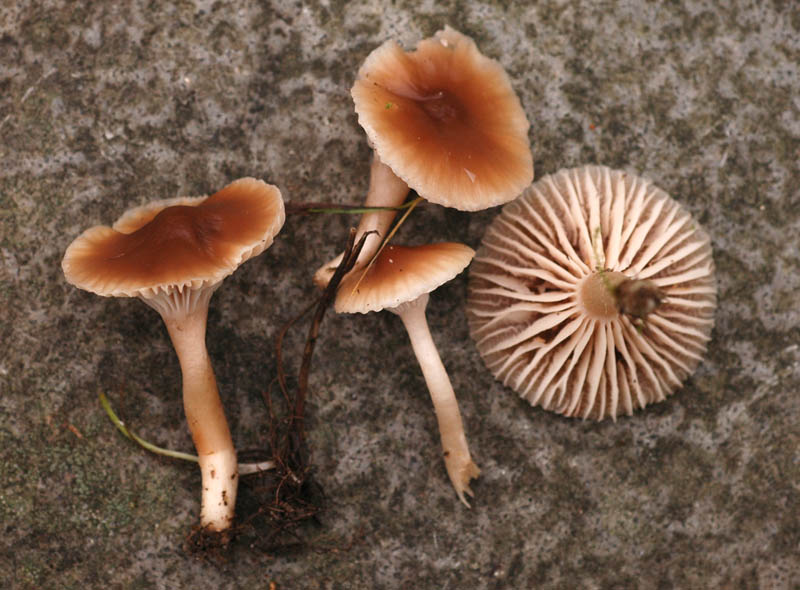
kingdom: Fungi
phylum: Basidiomycota
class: Agaricomycetes
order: Agaricales
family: Hygrophoraceae
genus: Cuphophyllus
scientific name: Cuphophyllus colemannianus
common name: rødbrun vokshat
